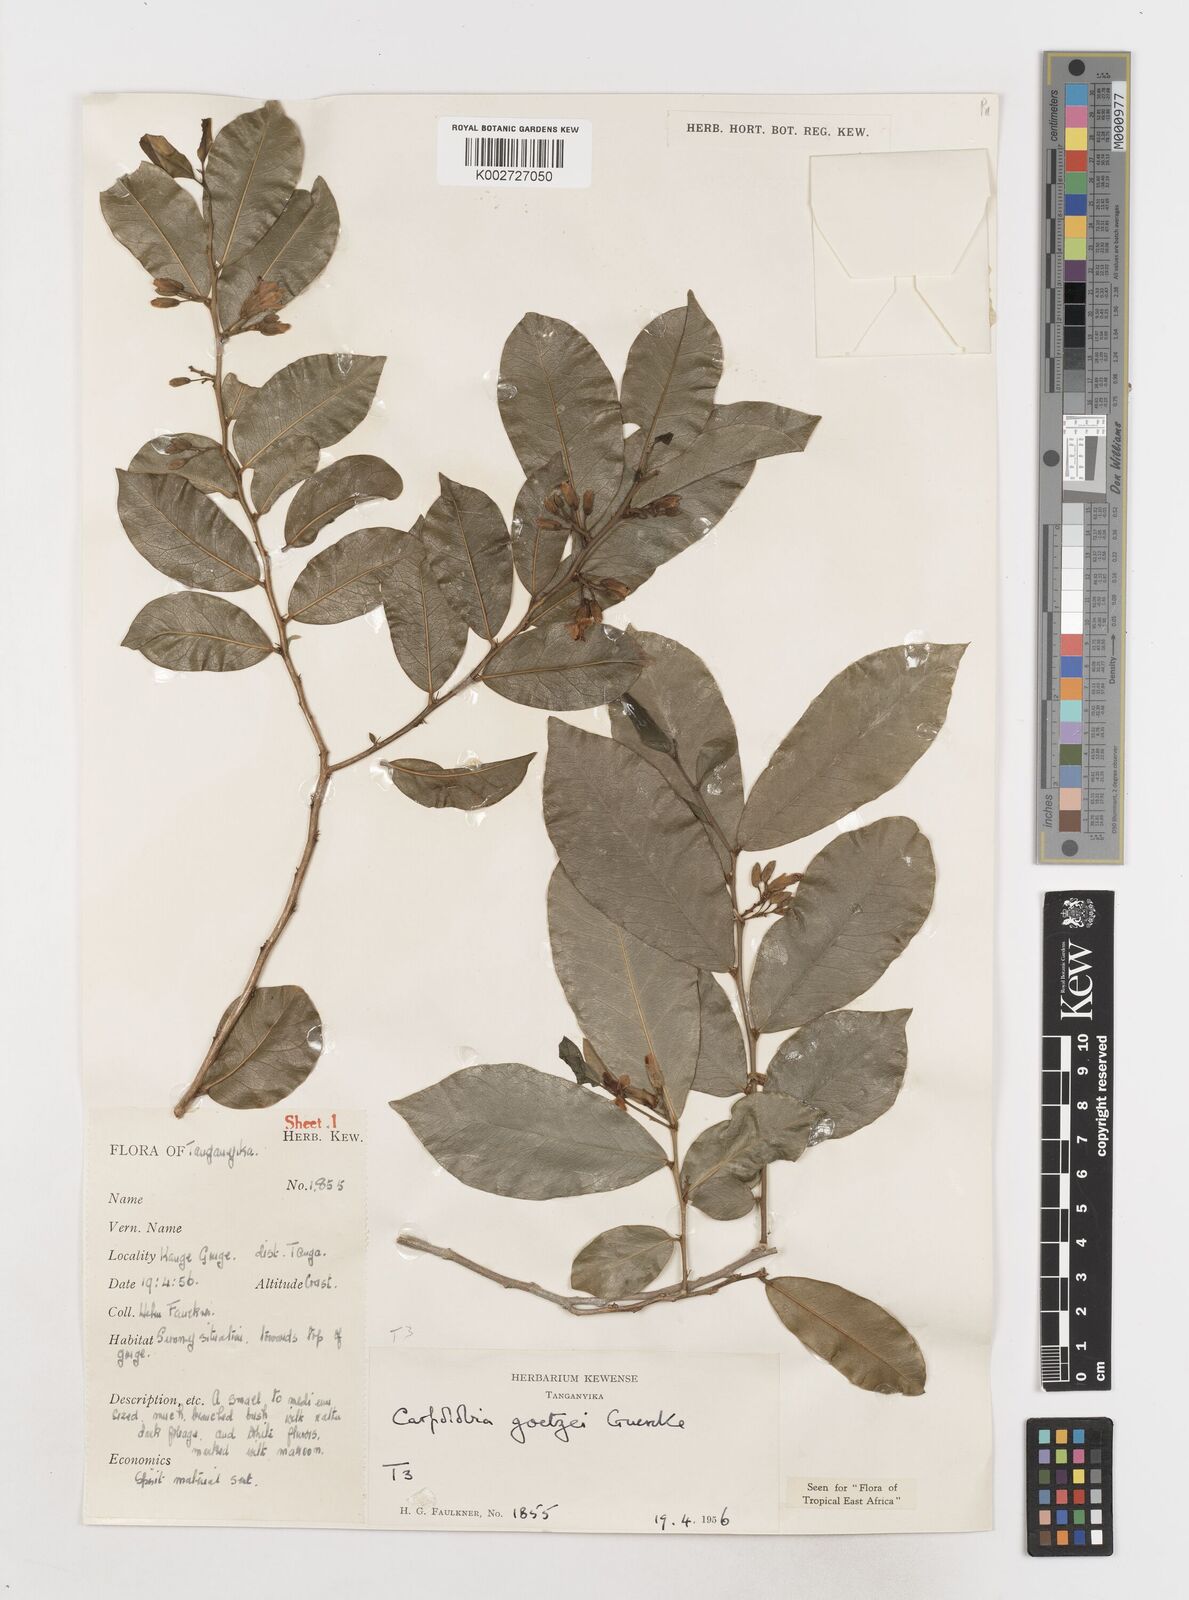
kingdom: Plantae
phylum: Tracheophyta
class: Magnoliopsida
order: Fabales
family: Polygalaceae
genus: Carpolobia
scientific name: Carpolobia goetzei
